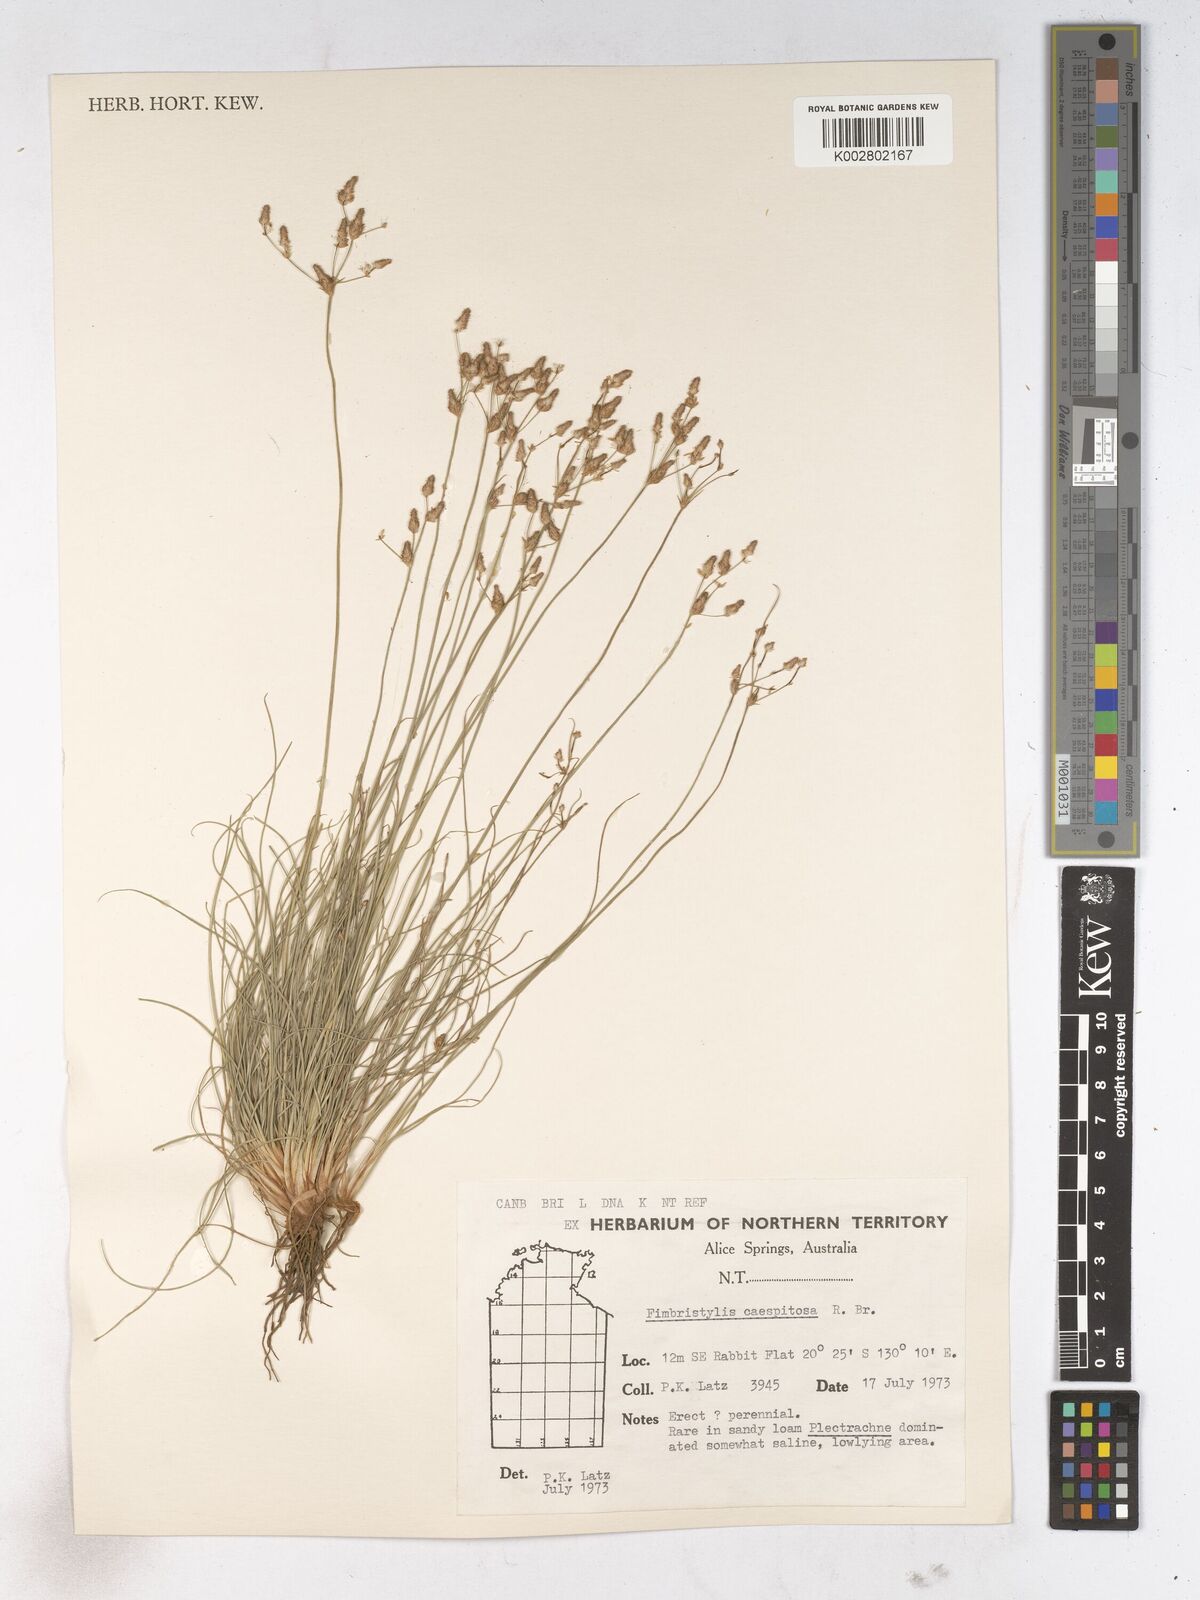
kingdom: Plantae
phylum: Tracheophyta
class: Liliopsida
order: Poales
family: Cyperaceae
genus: Fimbristylis
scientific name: Fimbristylis caespitosa
